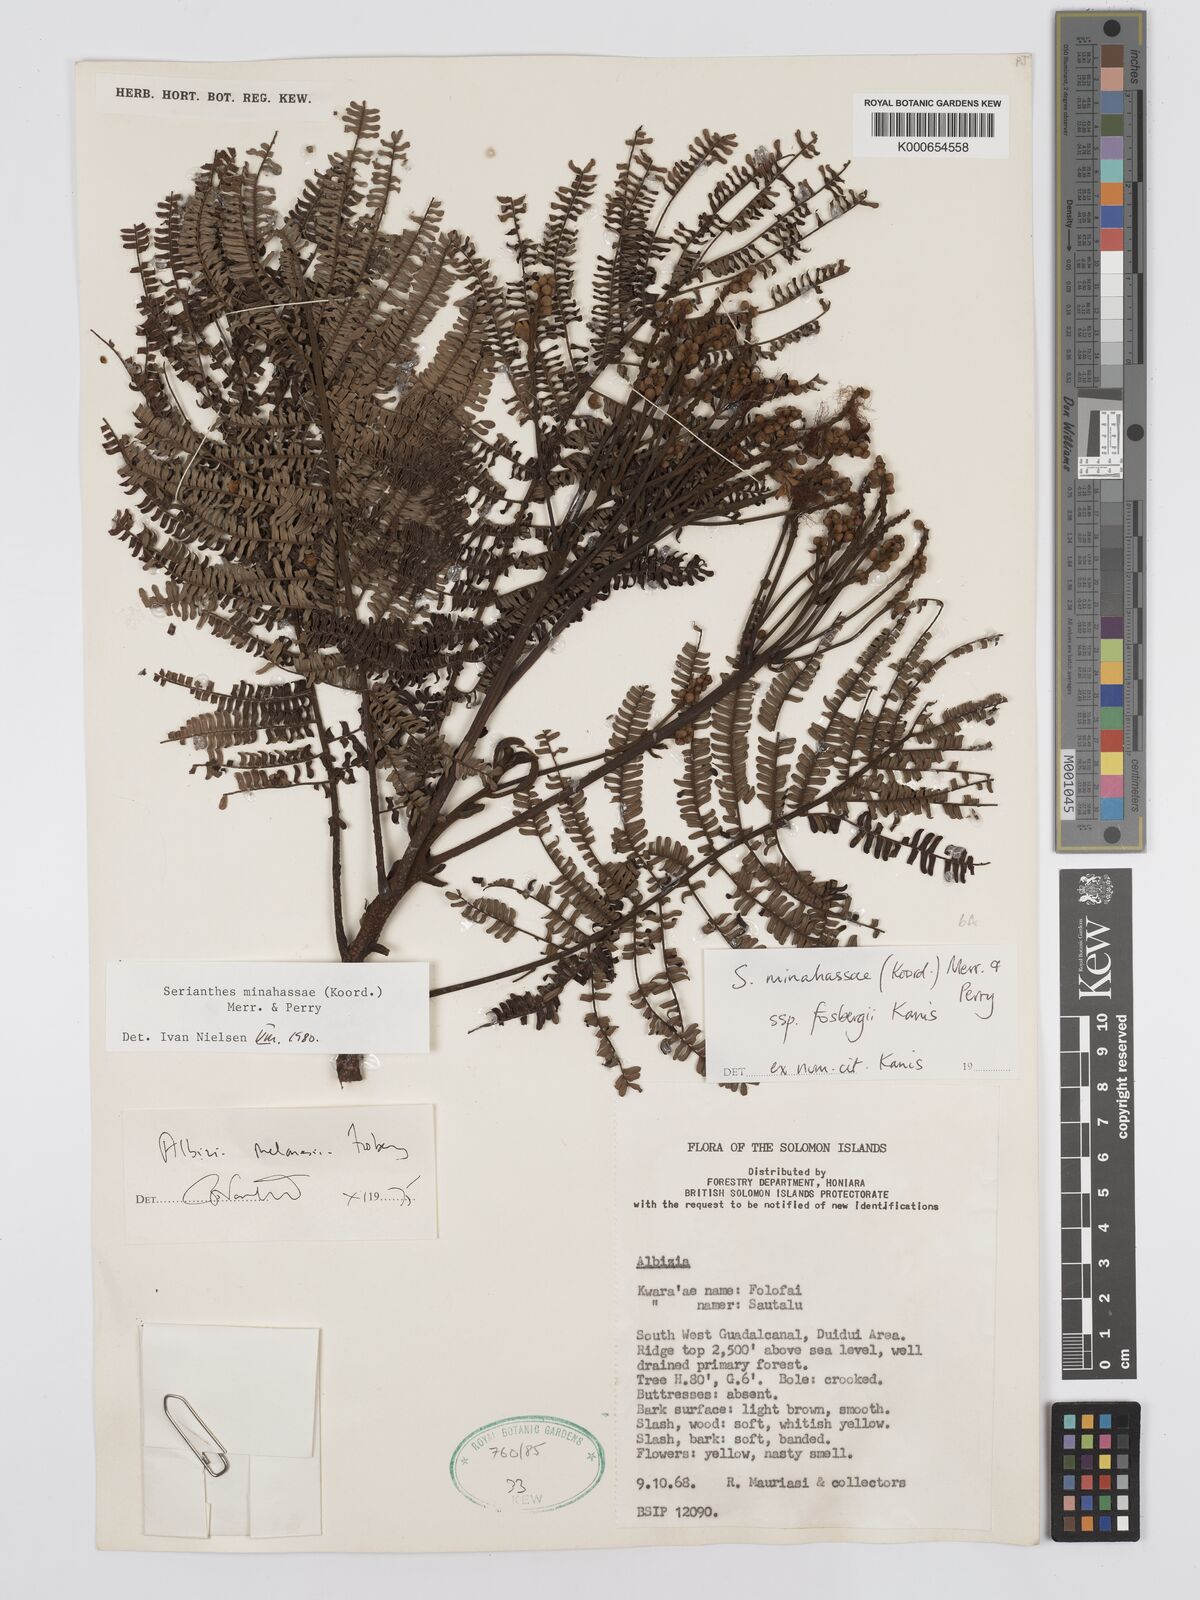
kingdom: Plantae
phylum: Tracheophyta
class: Magnoliopsida
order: Fabales
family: Fabaceae
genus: Serianthes
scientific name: Serianthes minahassae
